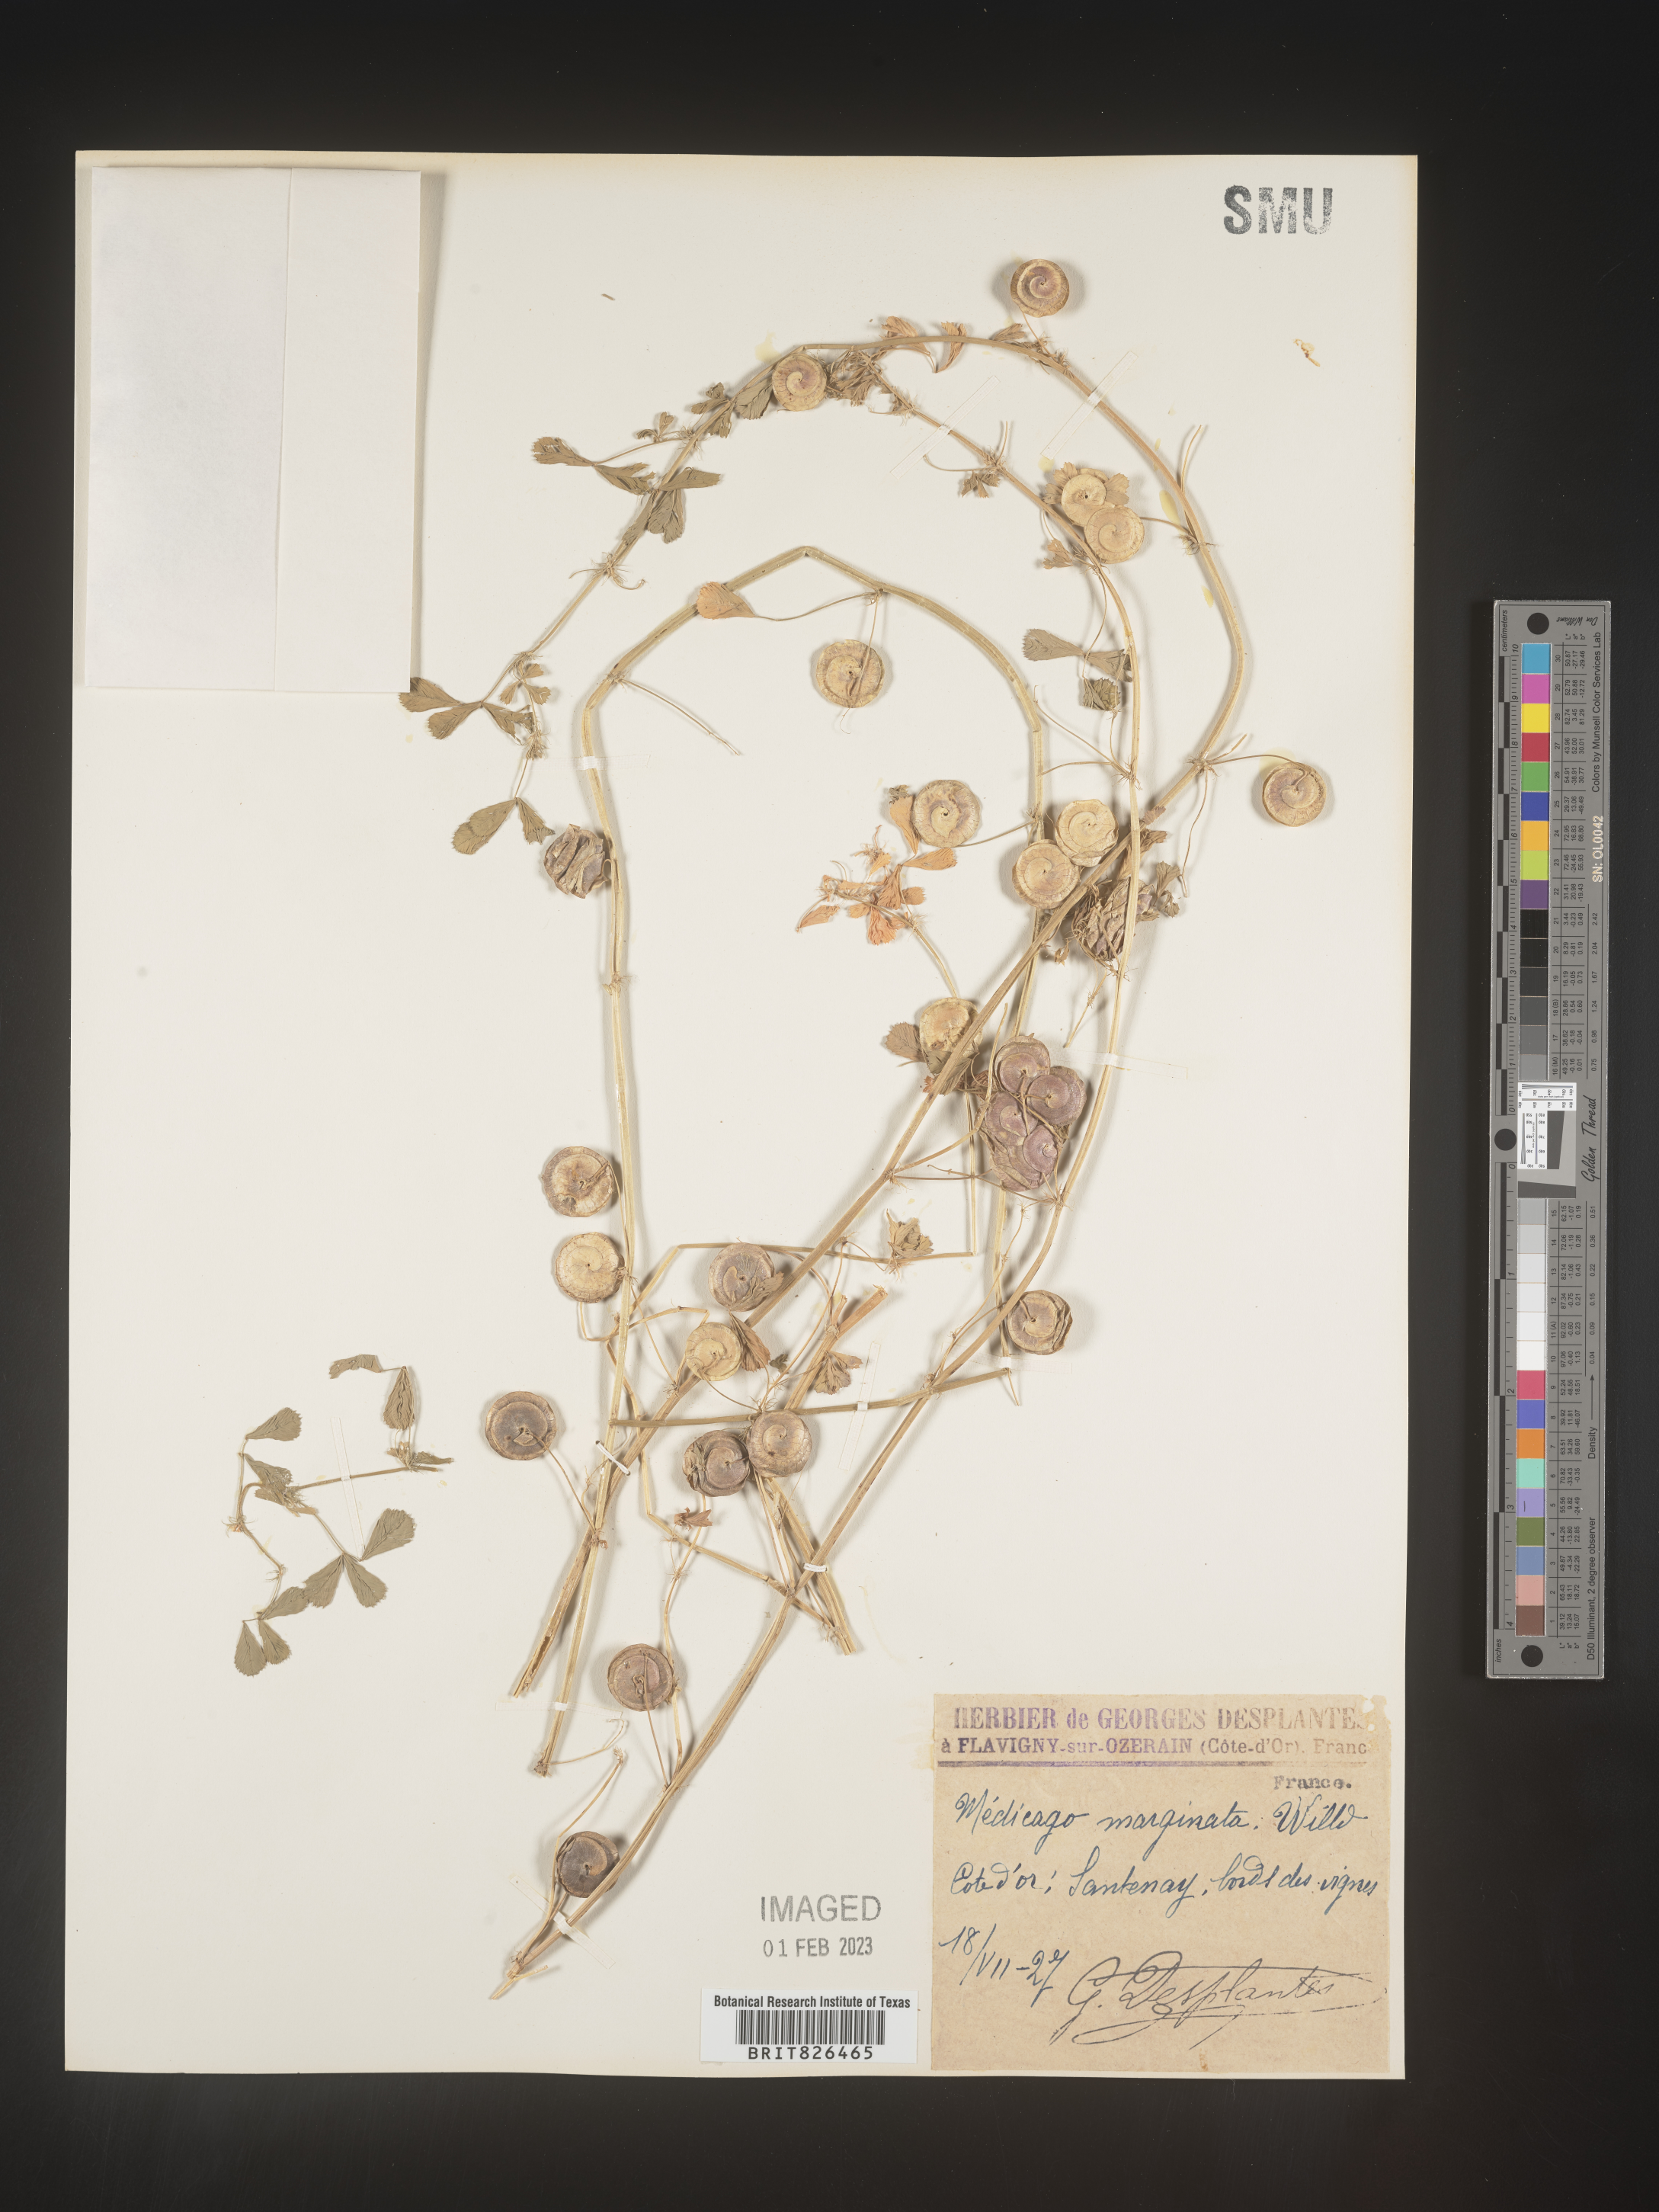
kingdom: Plantae
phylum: Tracheophyta
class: Magnoliopsida
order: Fabales
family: Fabaceae
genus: Medicago
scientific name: Medicago
